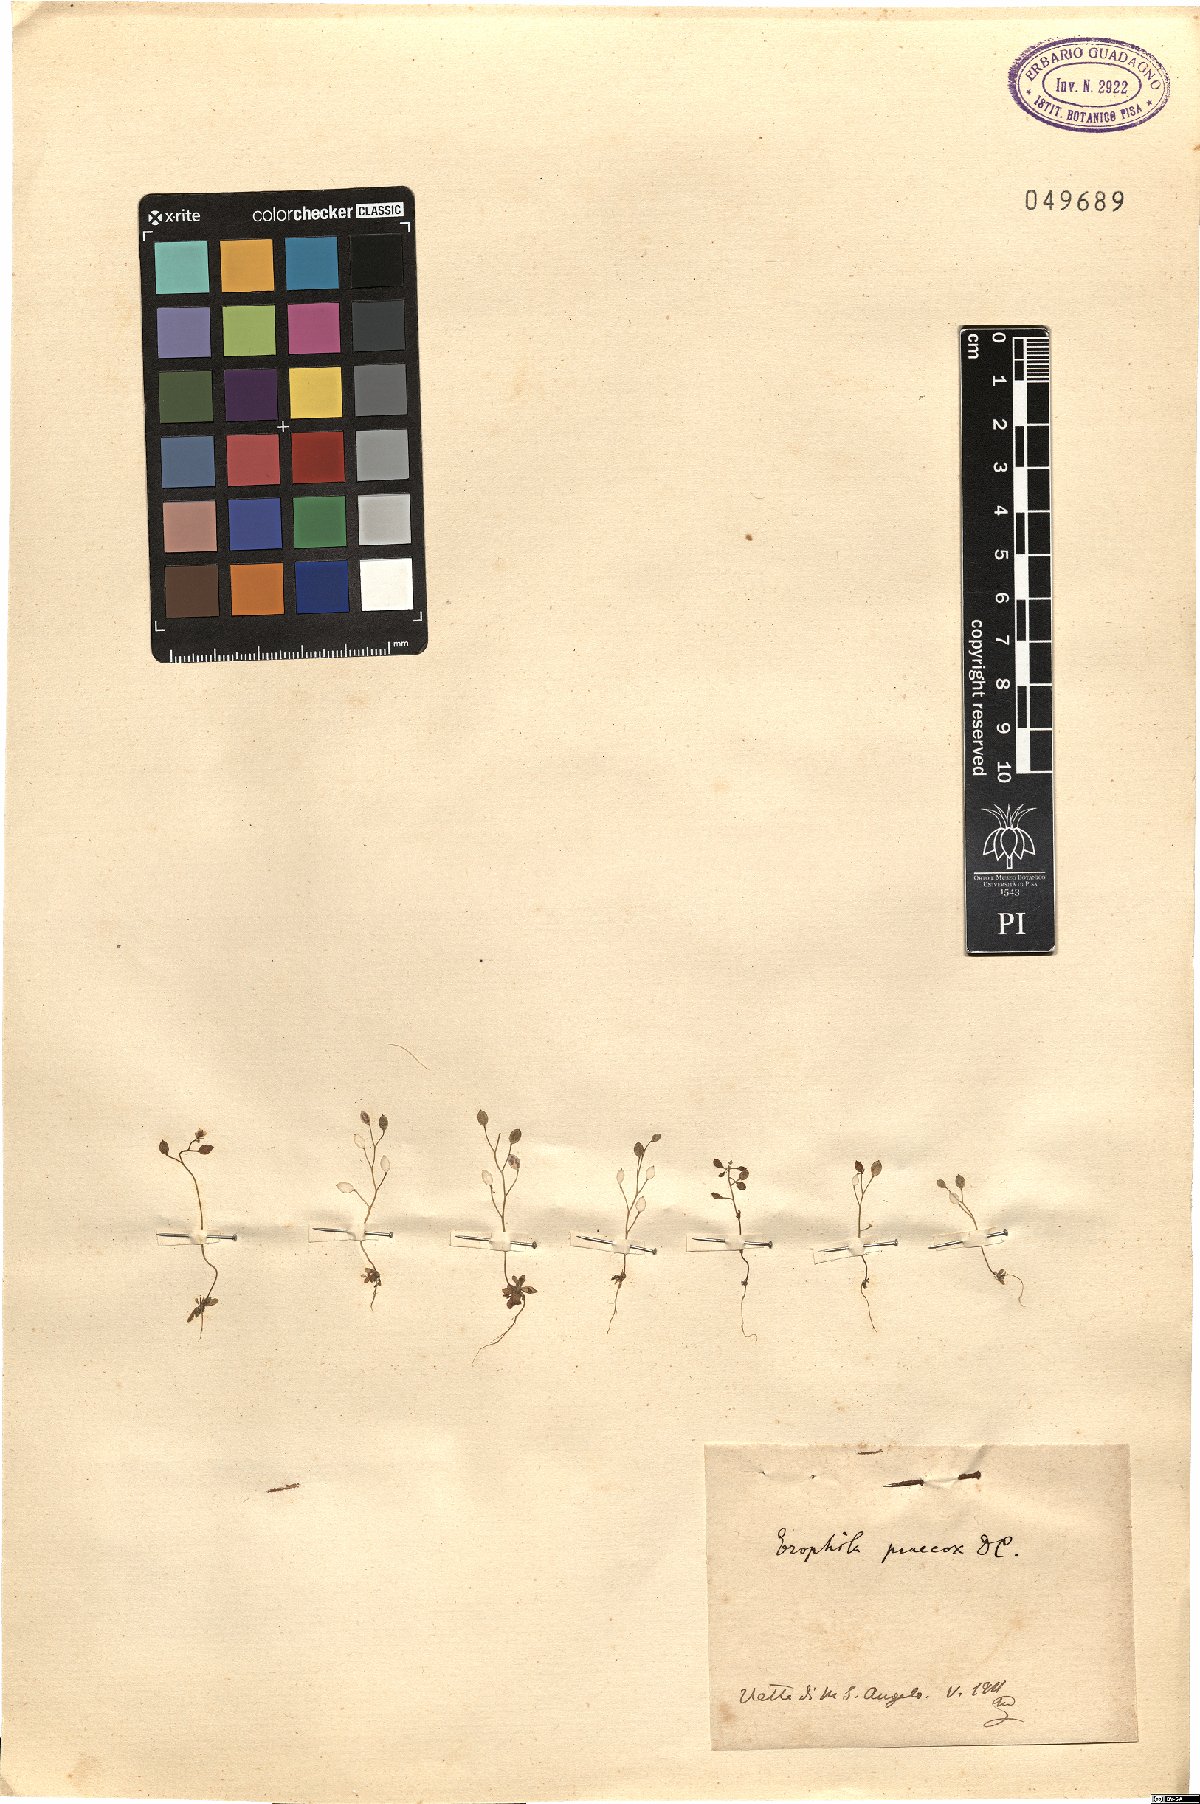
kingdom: Plantae
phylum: Tracheophyta
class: Magnoliopsida
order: Brassicales
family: Brassicaceae
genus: Draba
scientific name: Draba verna
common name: Spring draba
